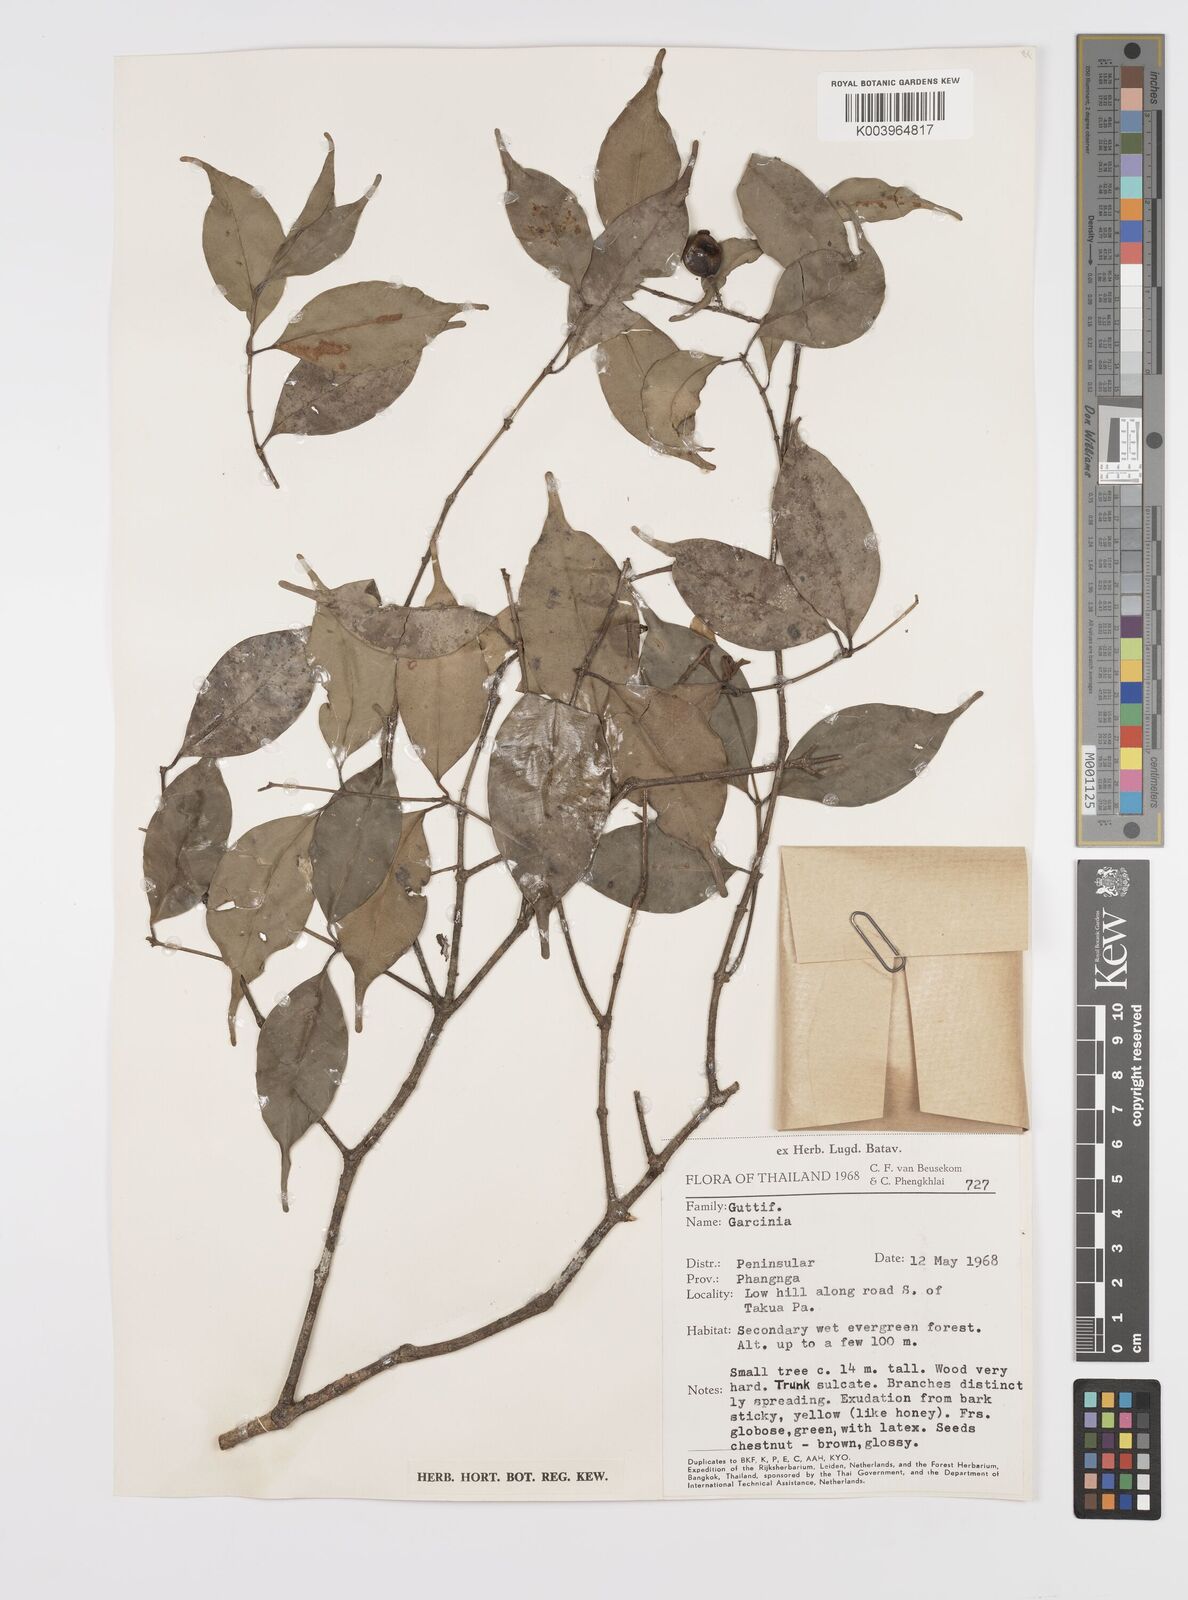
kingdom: Plantae
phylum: Tracheophyta
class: Magnoliopsida
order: Malpighiales
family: Clusiaceae
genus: Garcinia
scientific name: Garcinia
